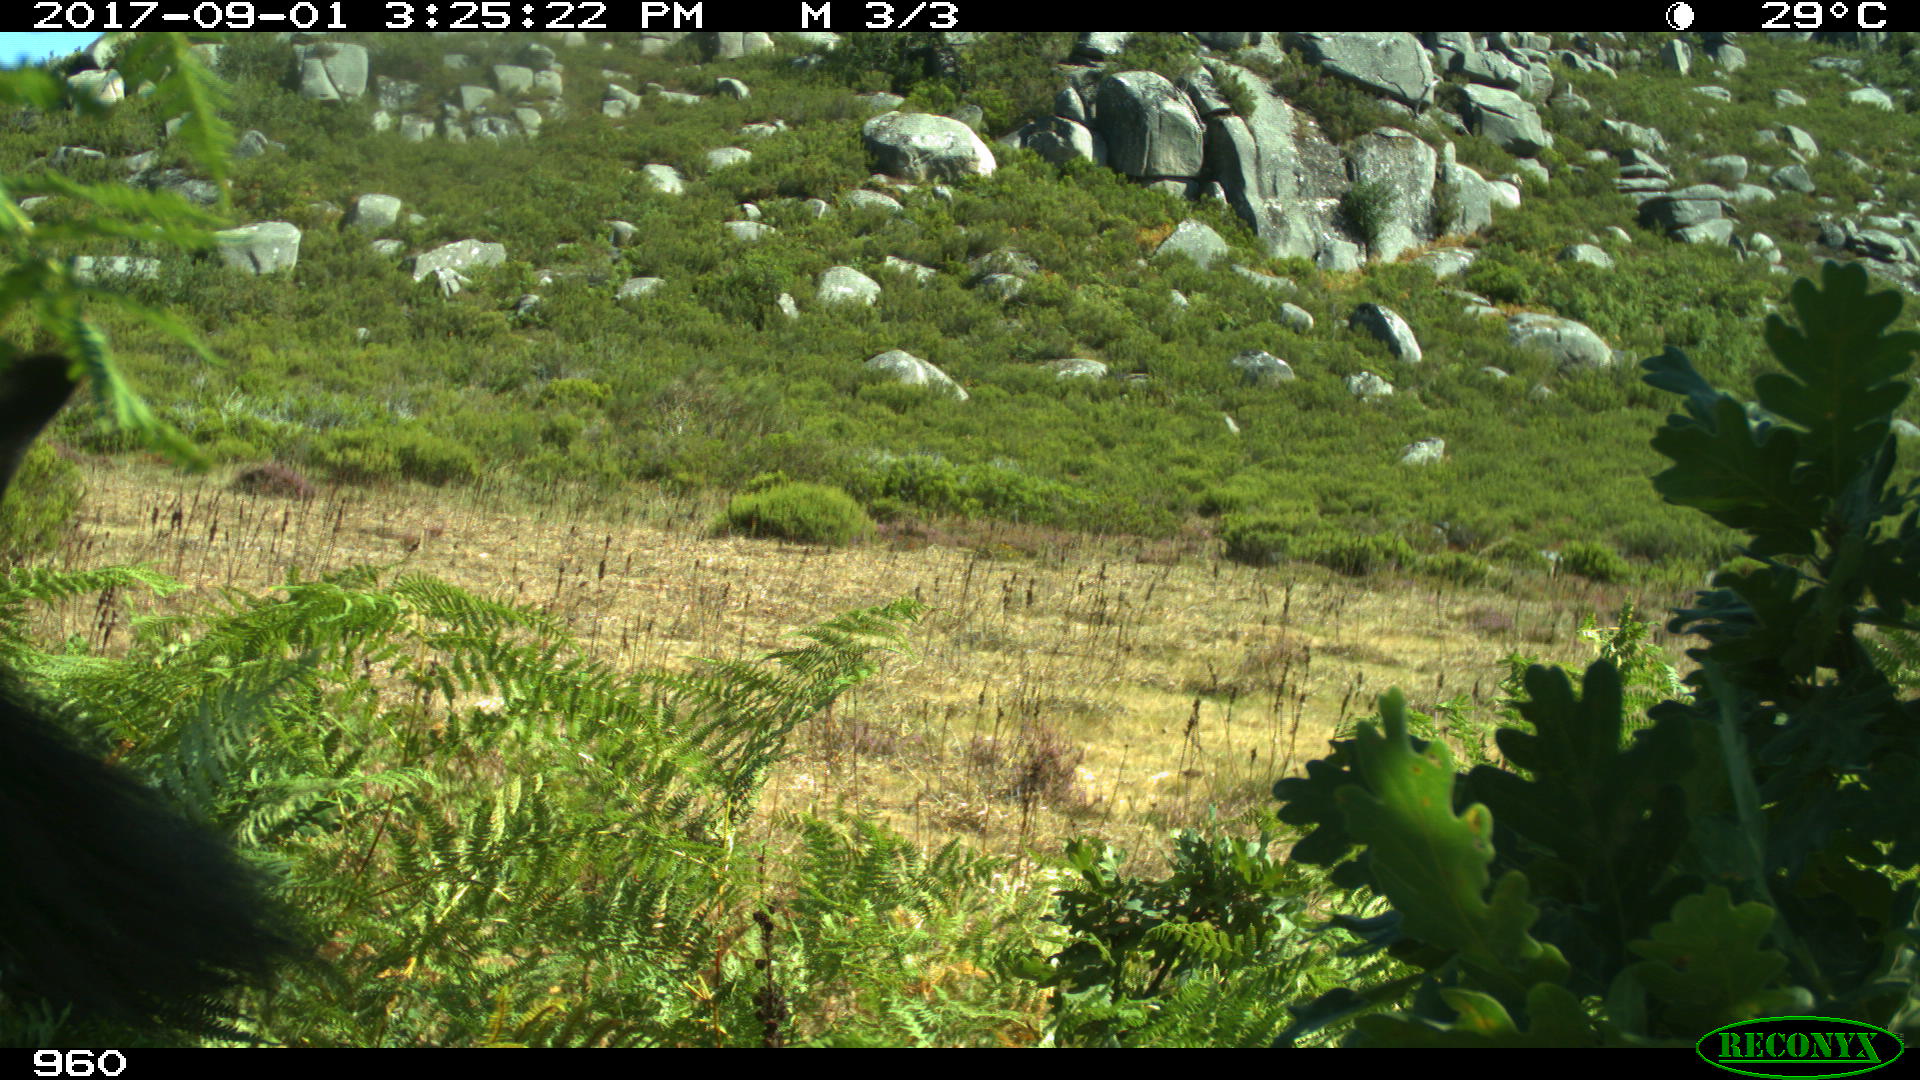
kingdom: Animalia
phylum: Chordata
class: Mammalia
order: Perissodactyla
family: Equidae
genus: Equus
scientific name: Equus caballus
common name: Horse
